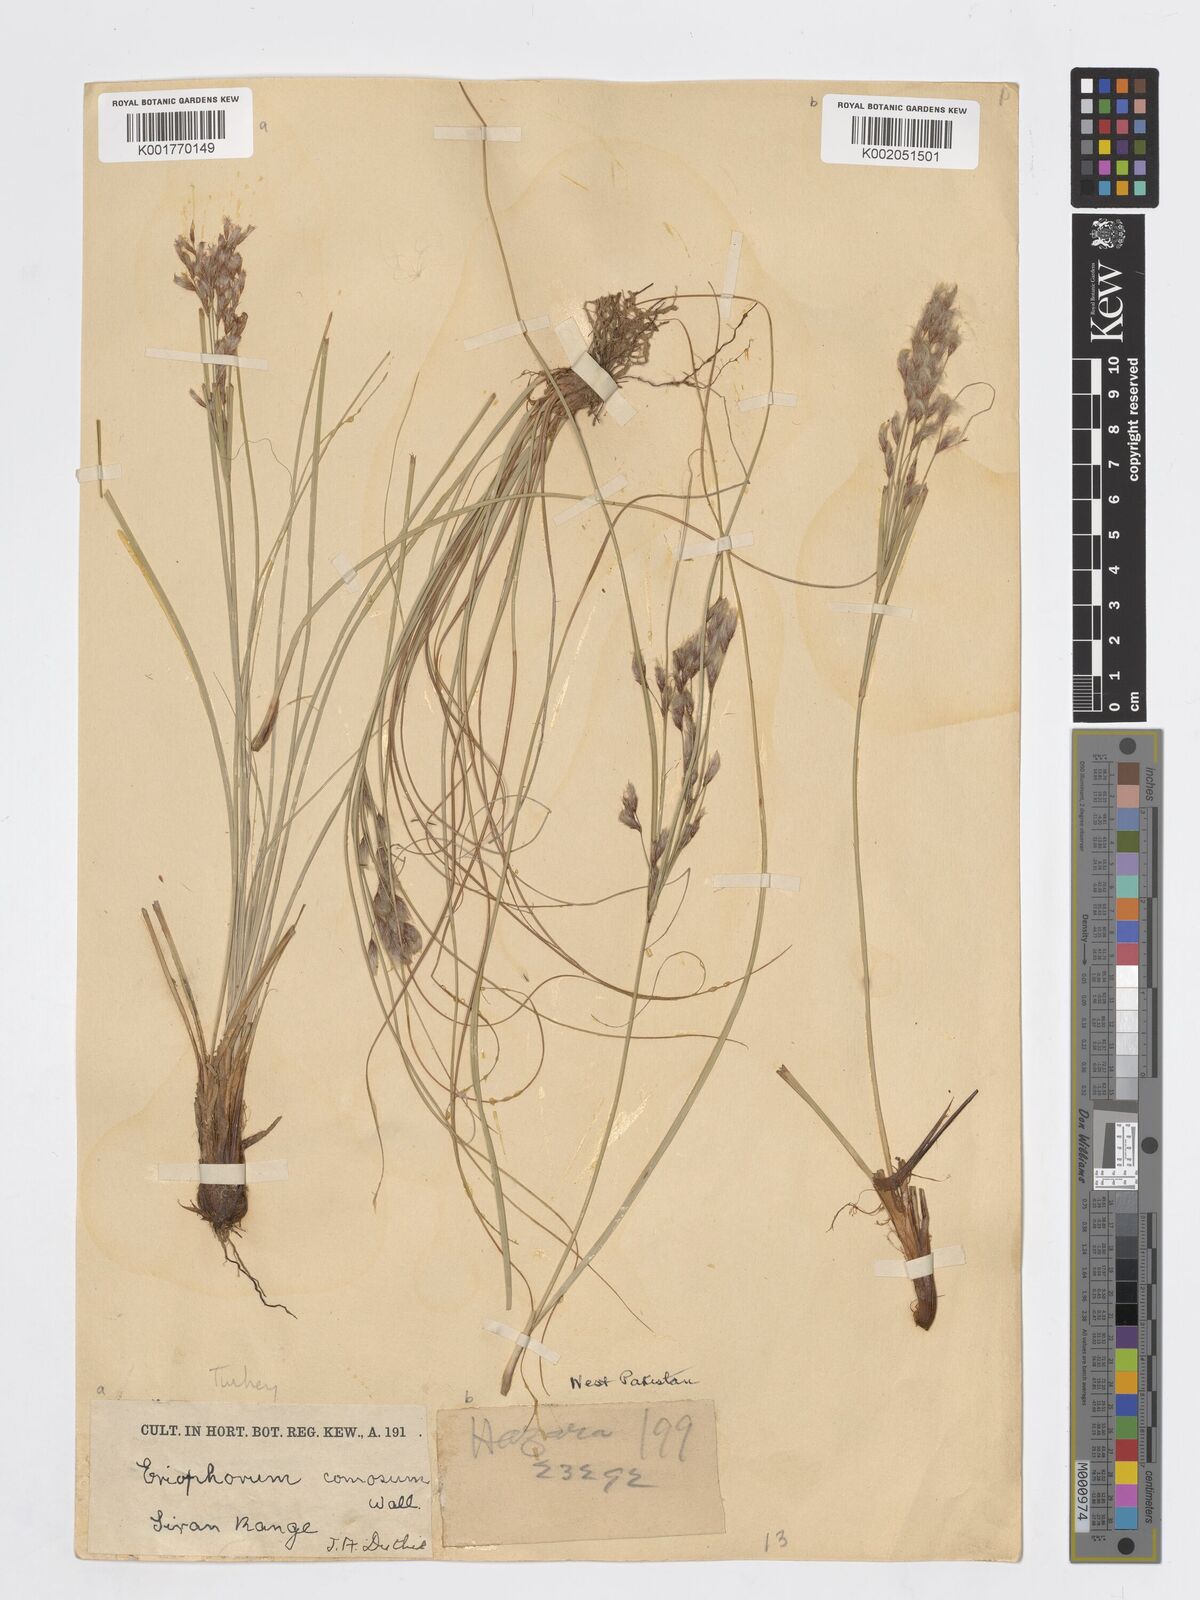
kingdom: Plantae
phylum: Tracheophyta
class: Liliopsida
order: Poales
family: Cyperaceae
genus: Erioscirpus
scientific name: Erioscirpus microstachyus
